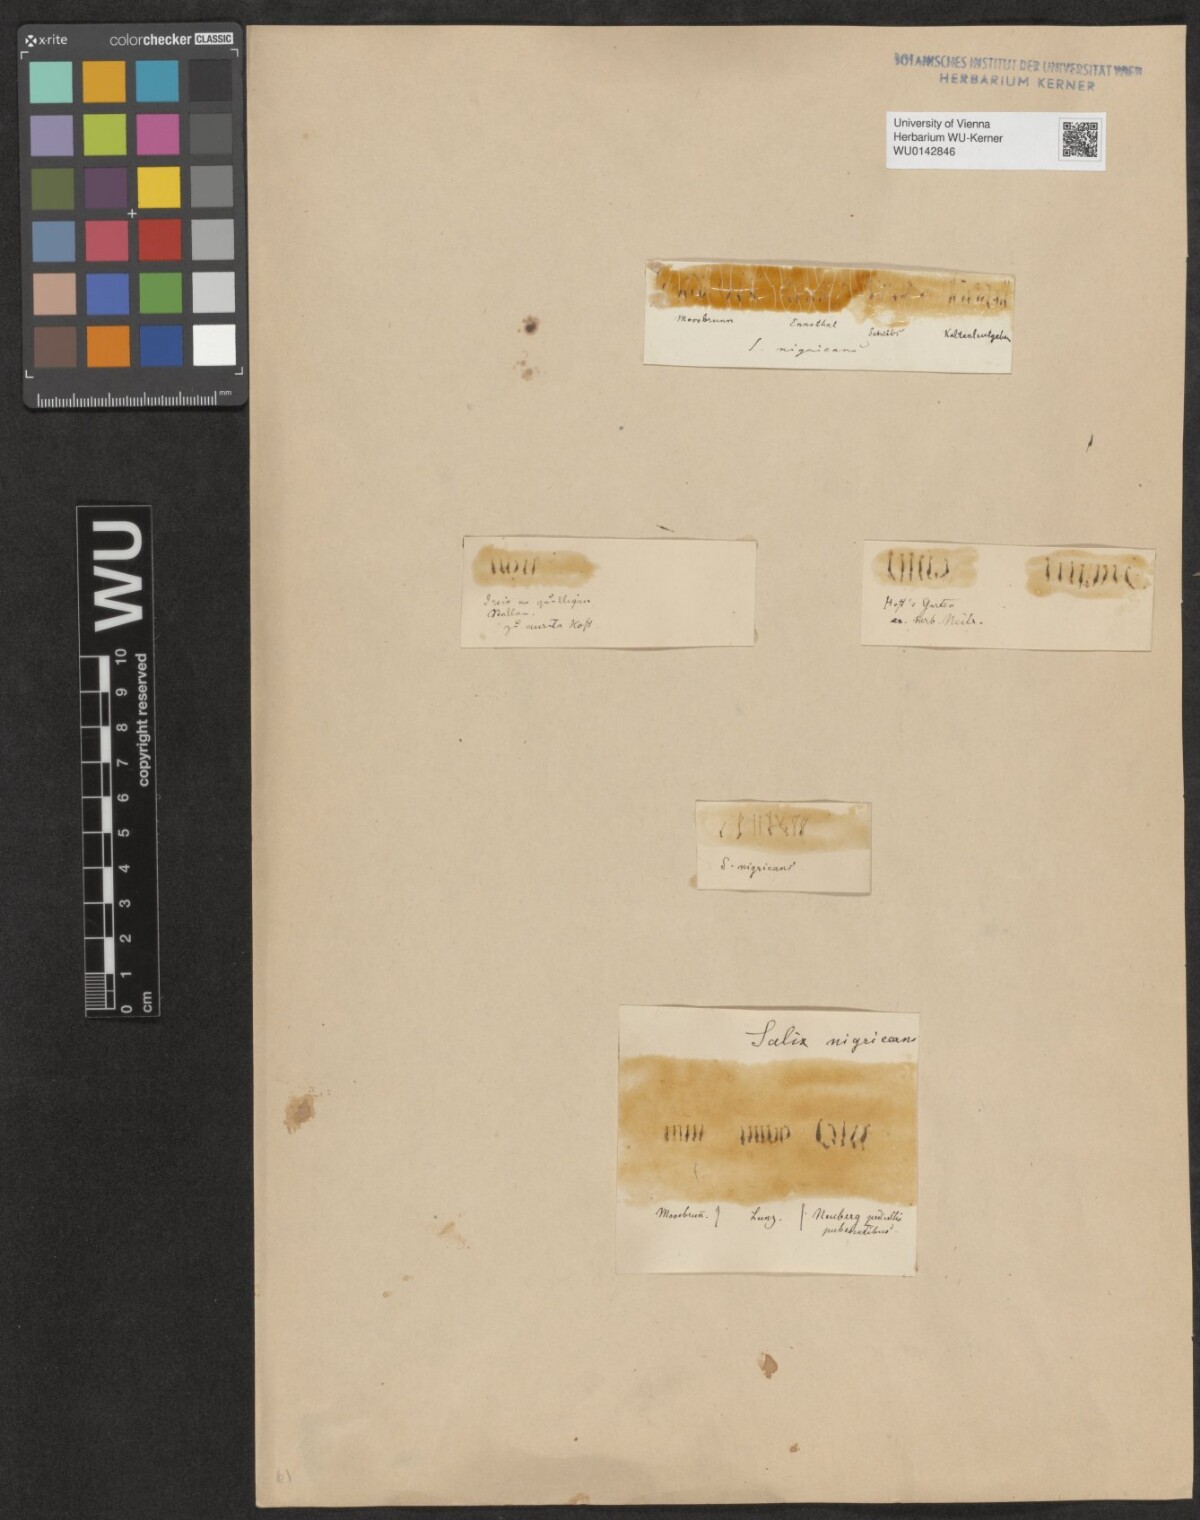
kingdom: Plantae
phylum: Tracheophyta
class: Magnoliopsida
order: Malpighiales
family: Salicaceae
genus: Salix
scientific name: Salix myrsinifolia
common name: Dark-leaved willow
